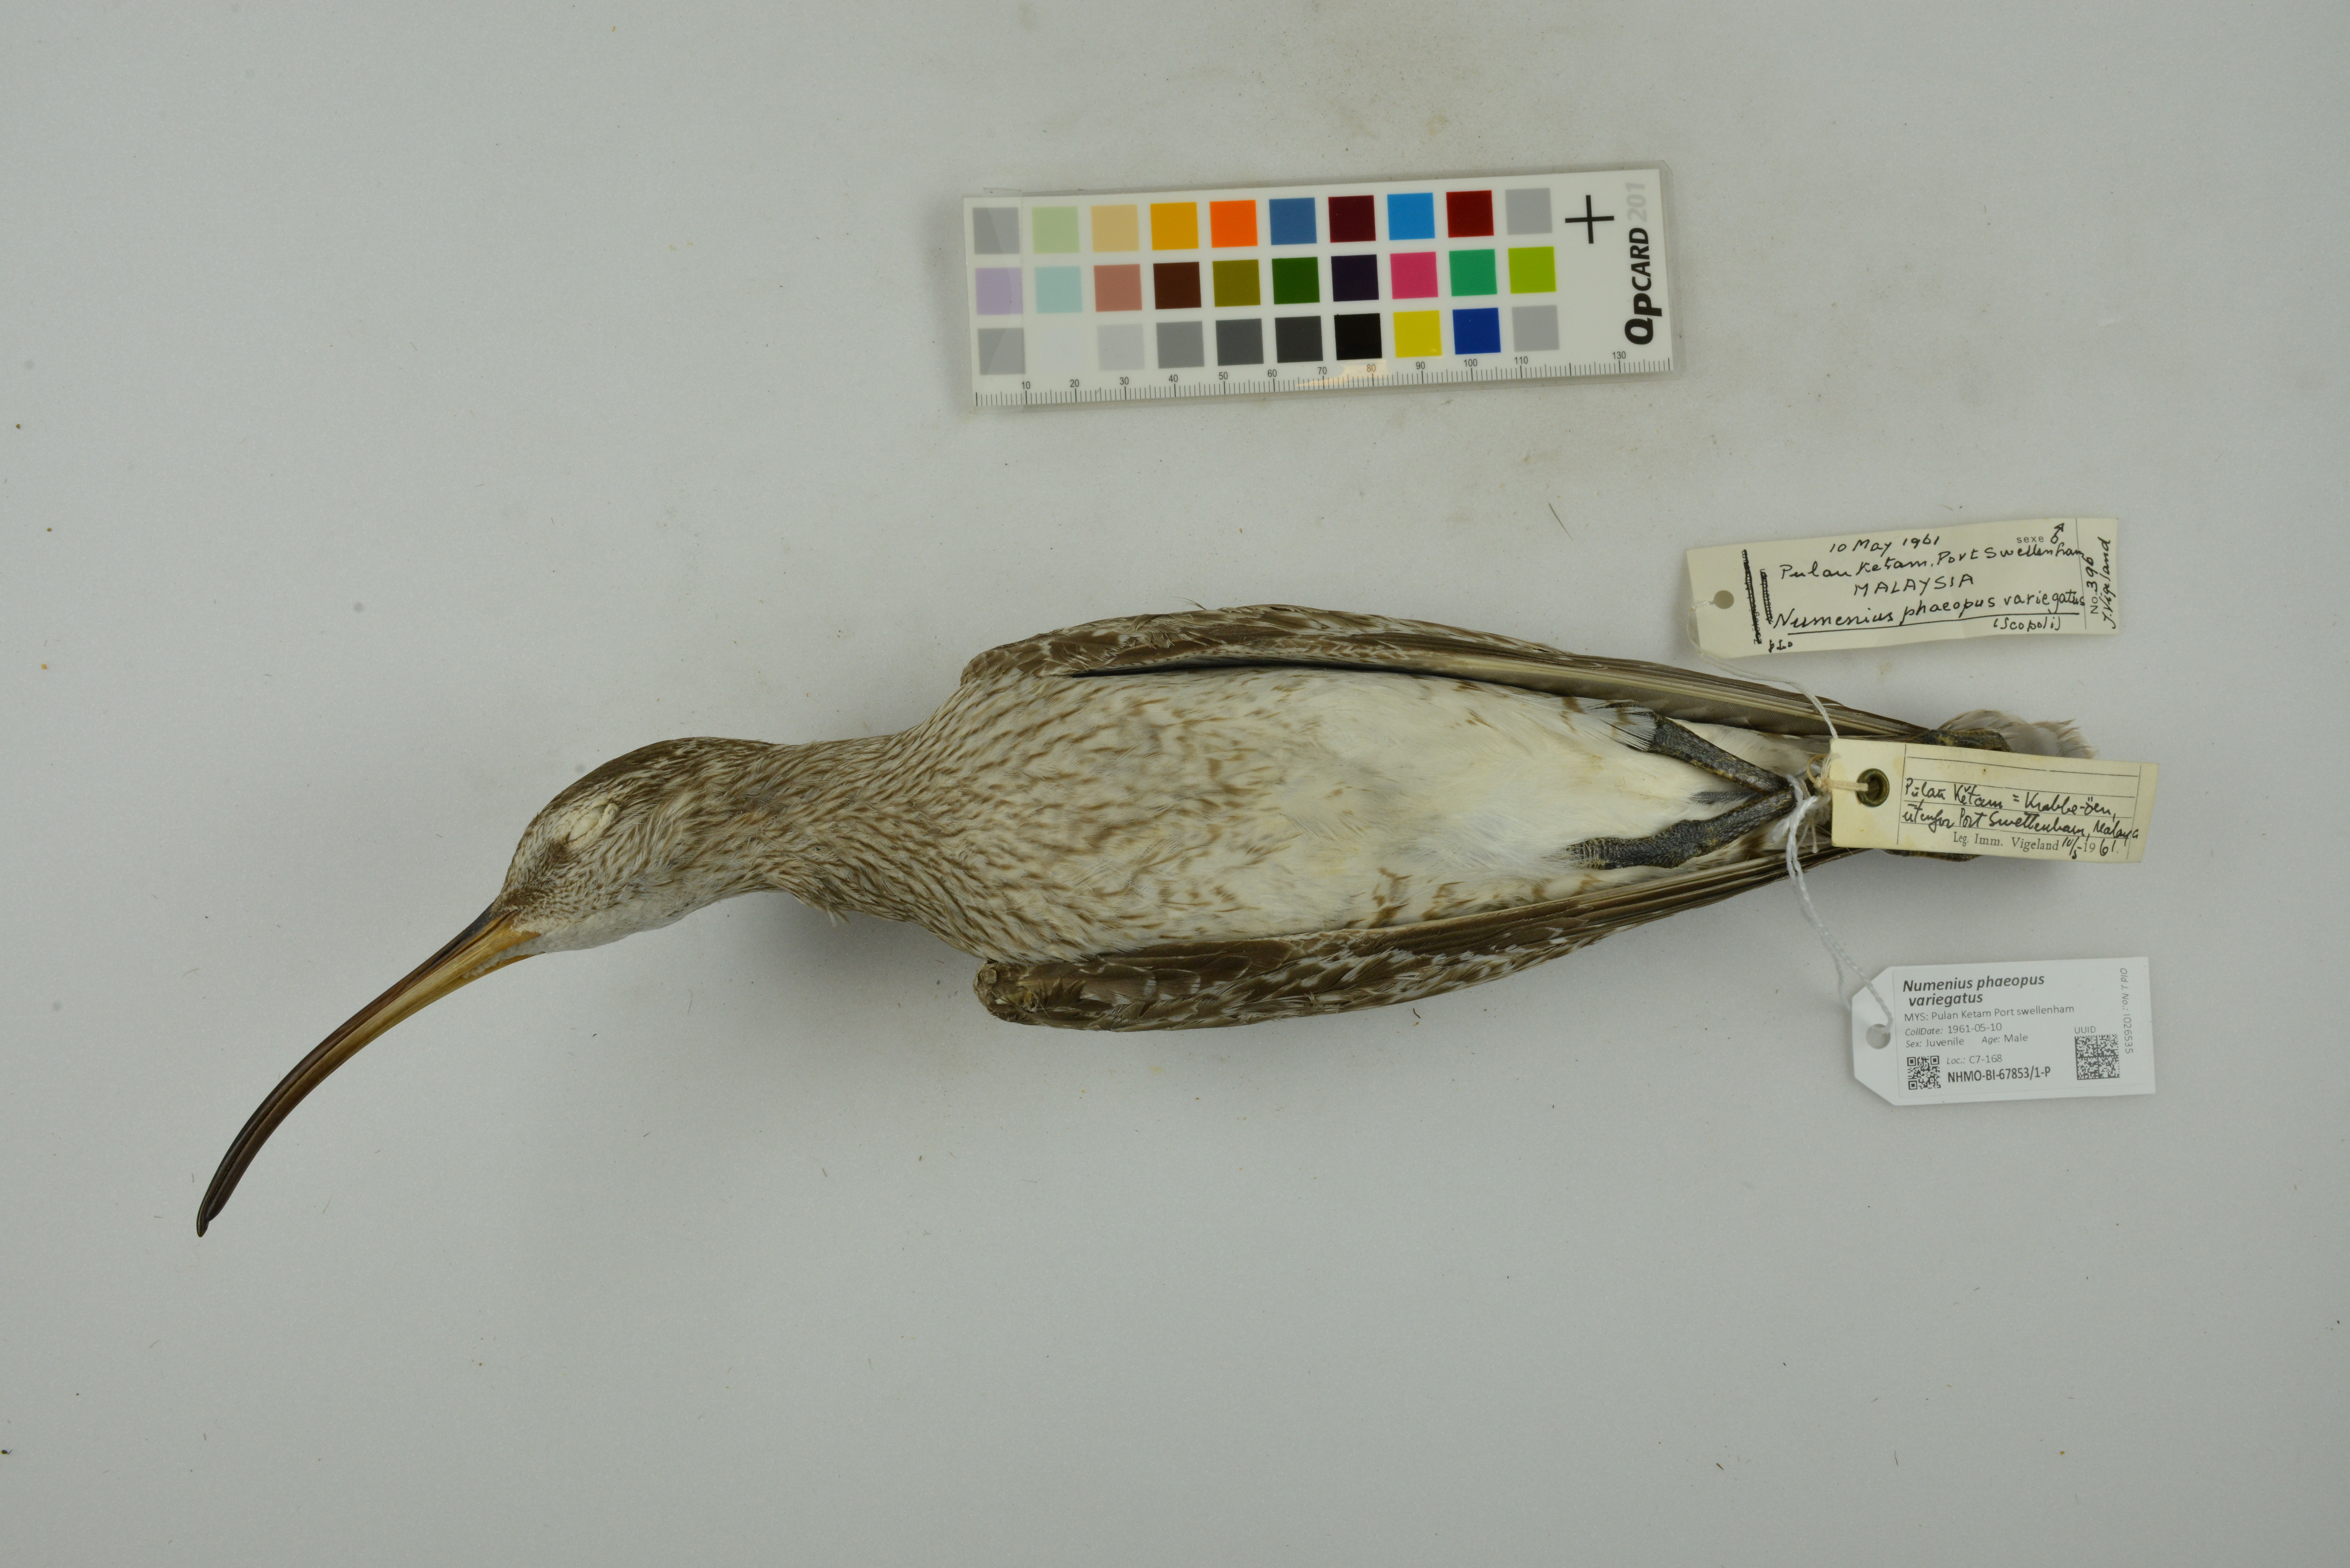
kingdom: Animalia
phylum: Chordata
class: Aves
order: Charadriiformes
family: Scolopacidae
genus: Numenius
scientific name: Numenius phaeopus
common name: Whimbrel
